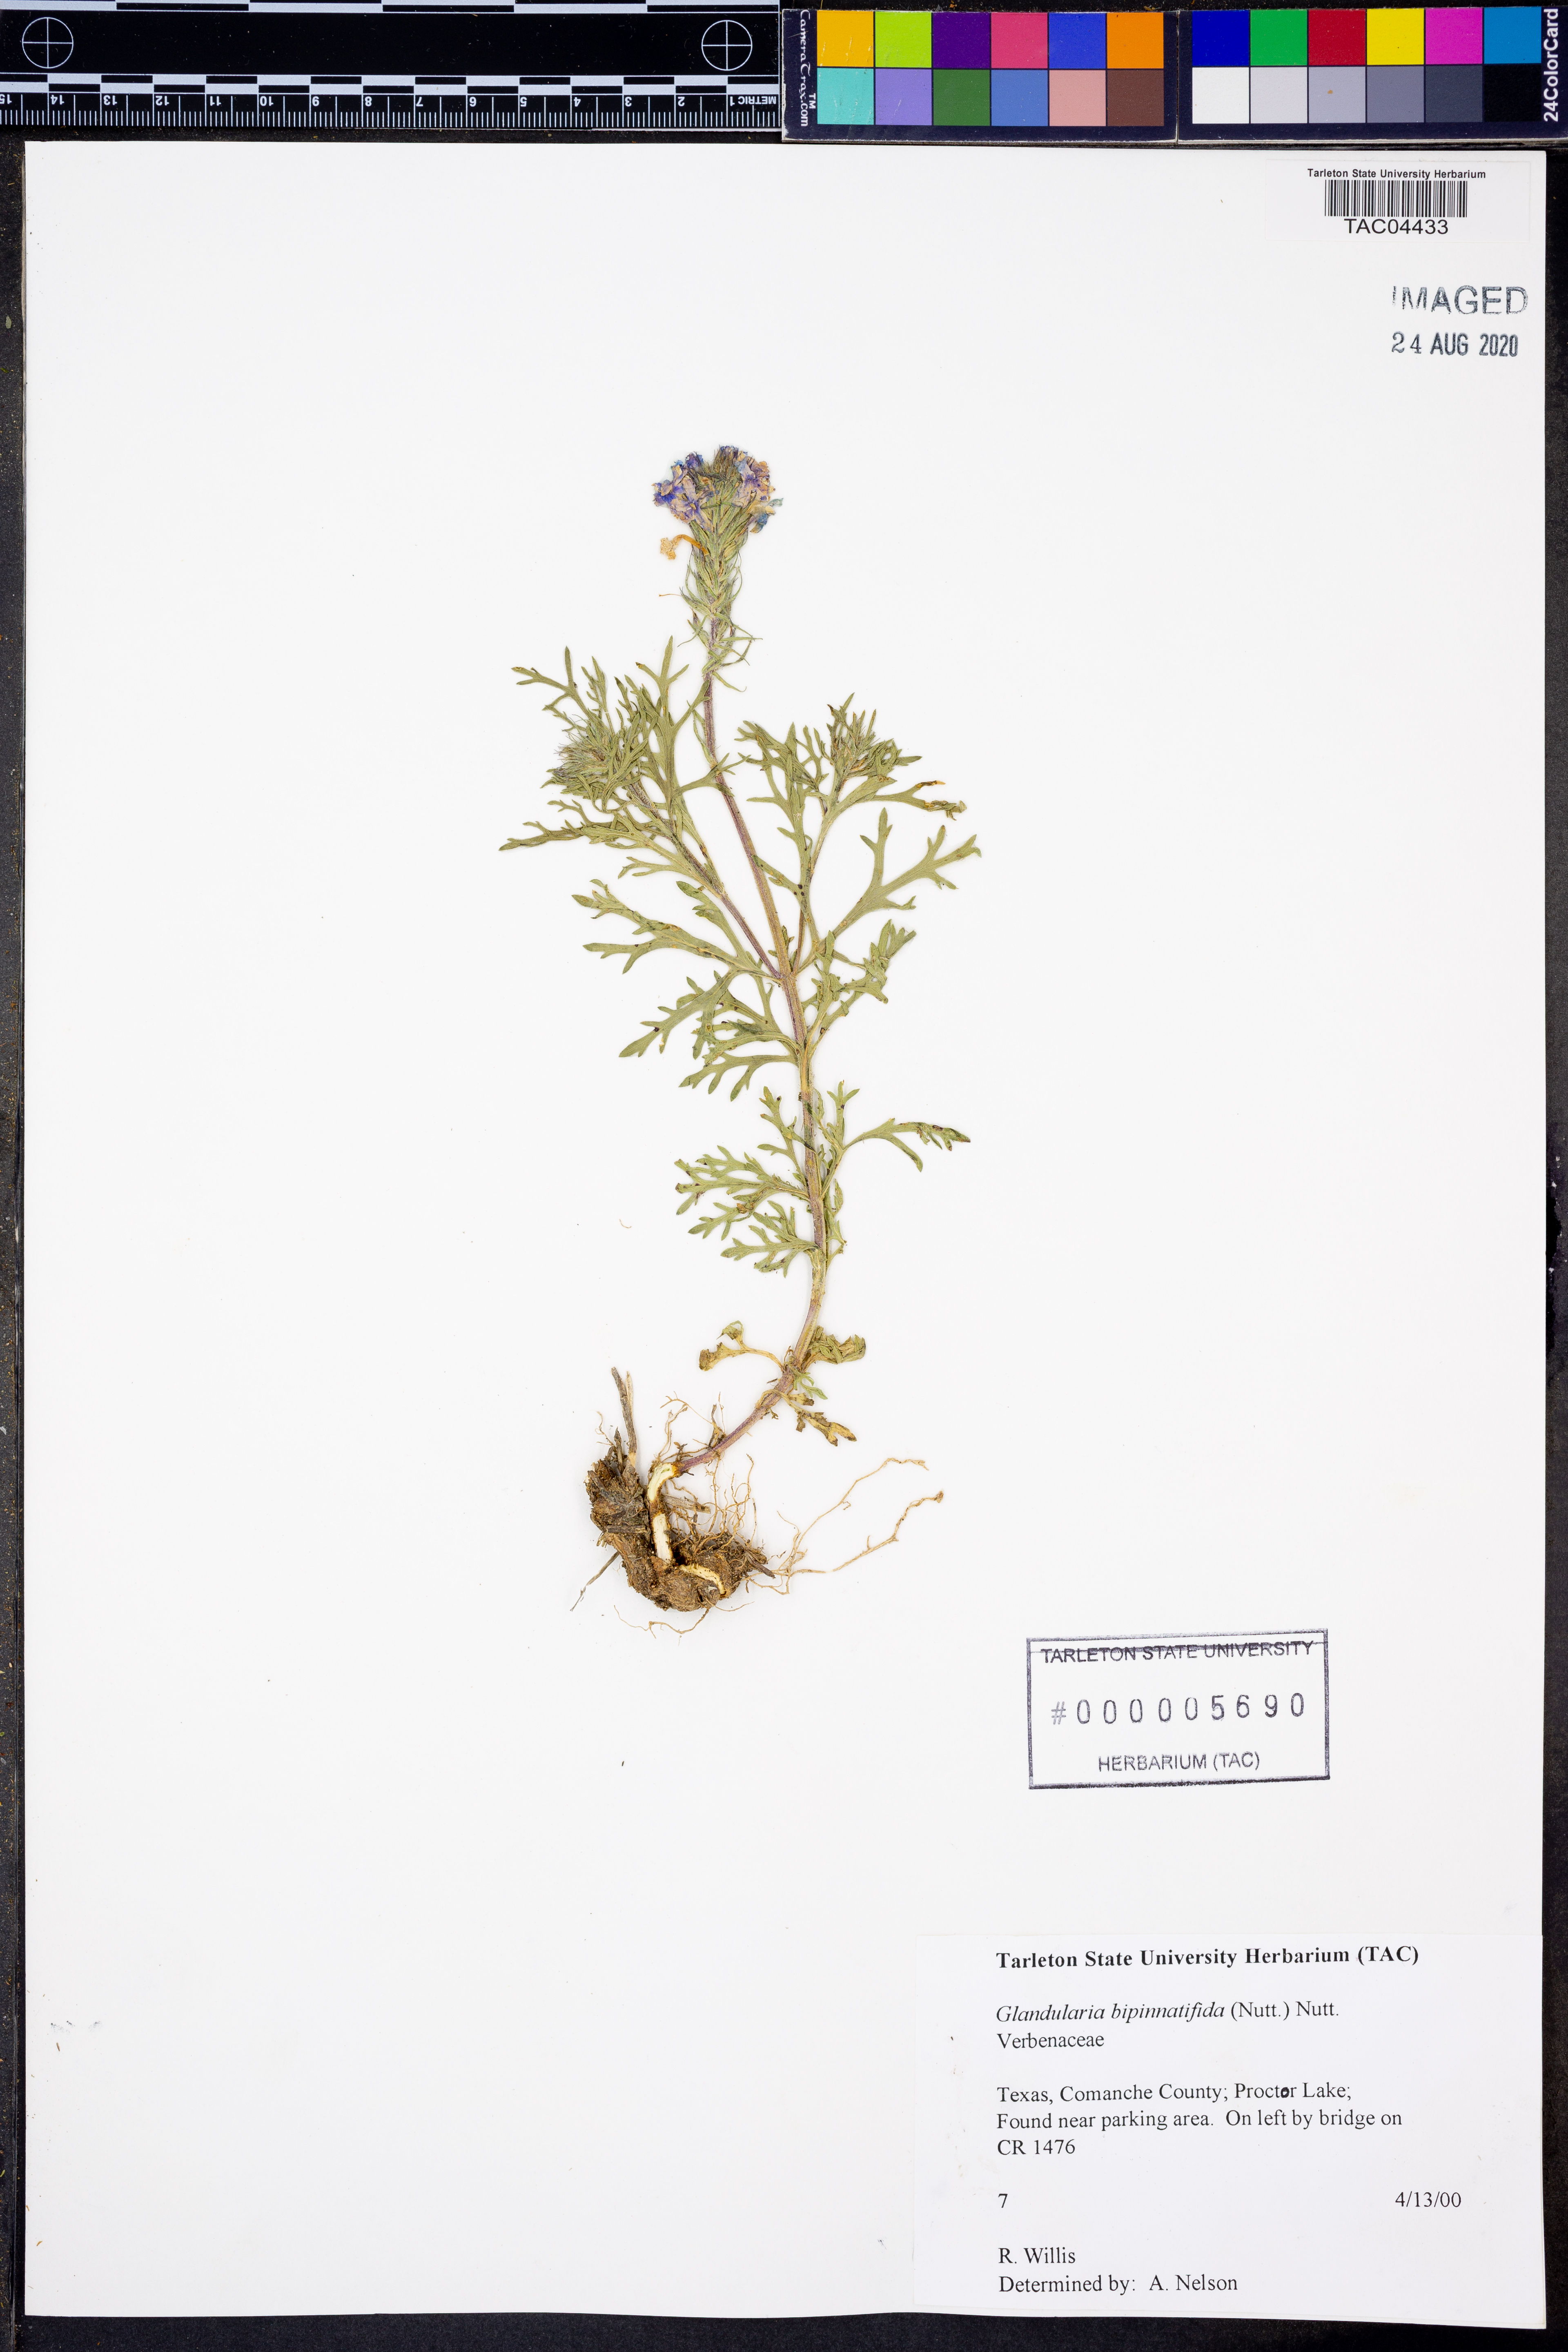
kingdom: Plantae
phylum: Tracheophyta
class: Magnoliopsida
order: Lamiales
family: Verbenaceae
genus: Verbena
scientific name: Verbena bipinnatifida
